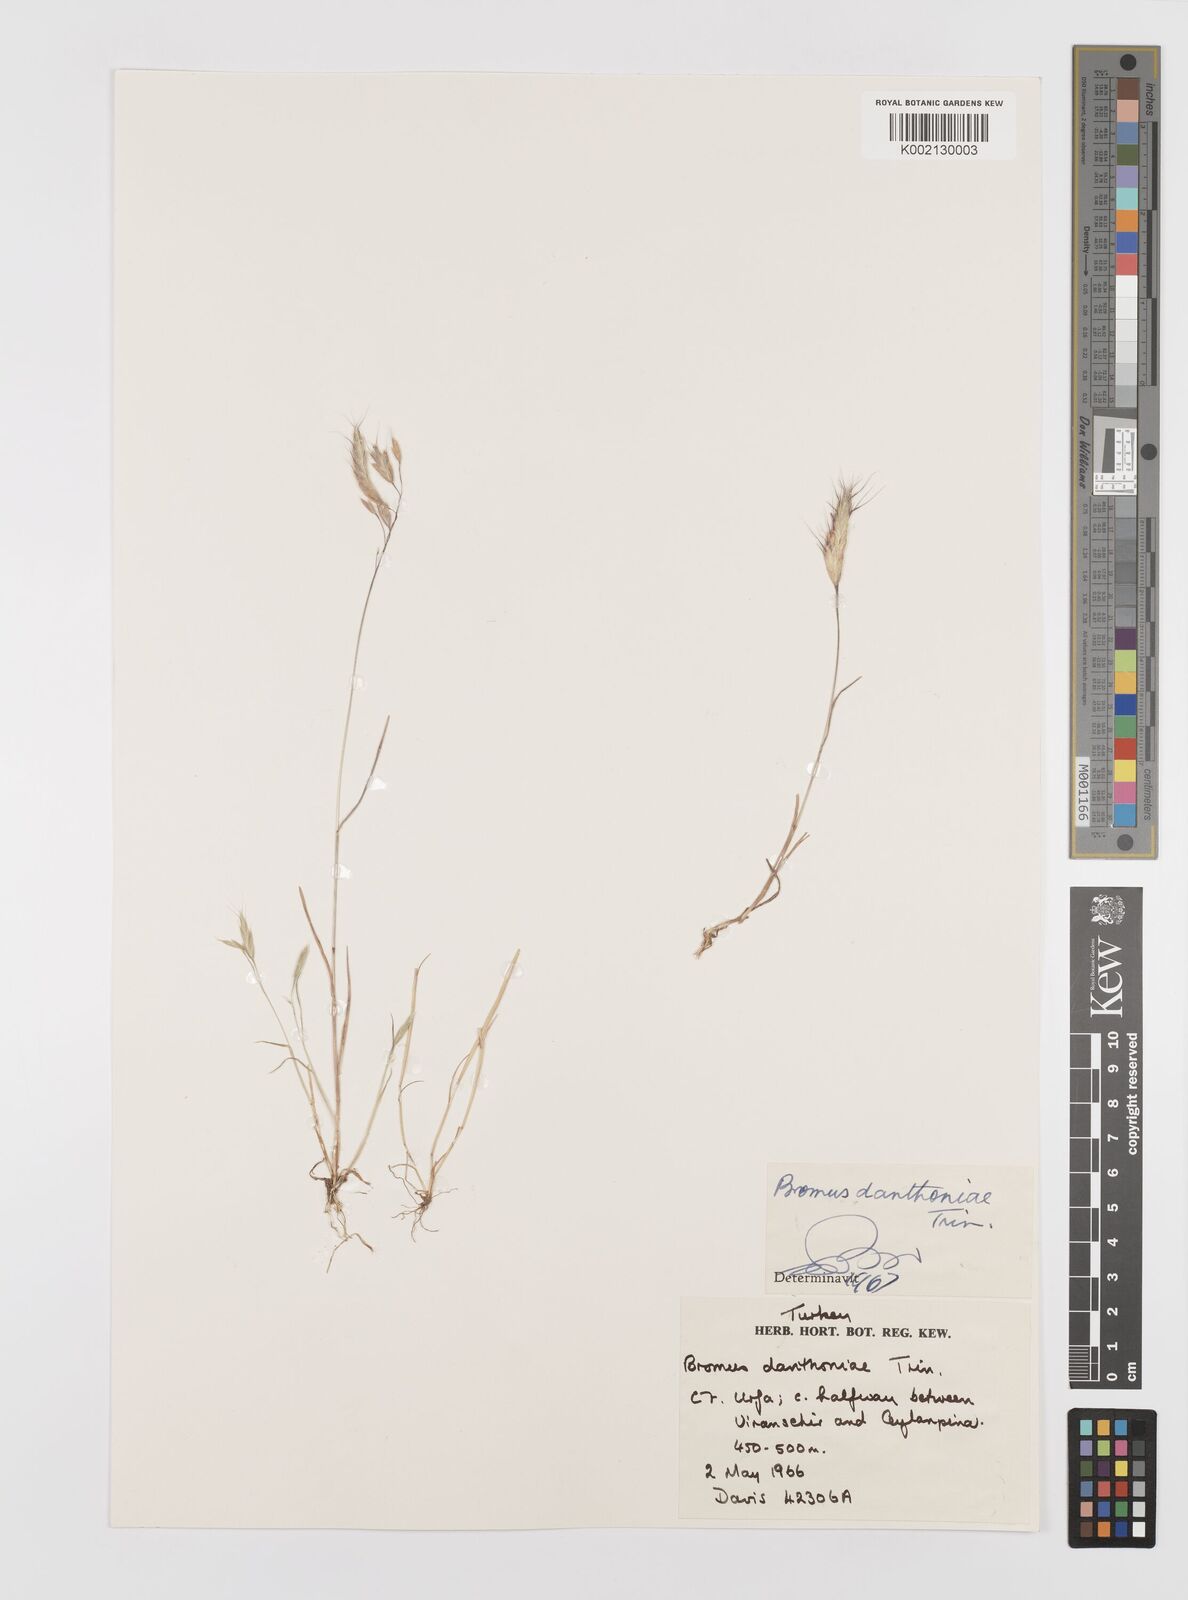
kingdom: Plantae
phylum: Tracheophyta
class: Liliopsida
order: Poales
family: Poaceae
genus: Bromus
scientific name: Bromus danthoniae
